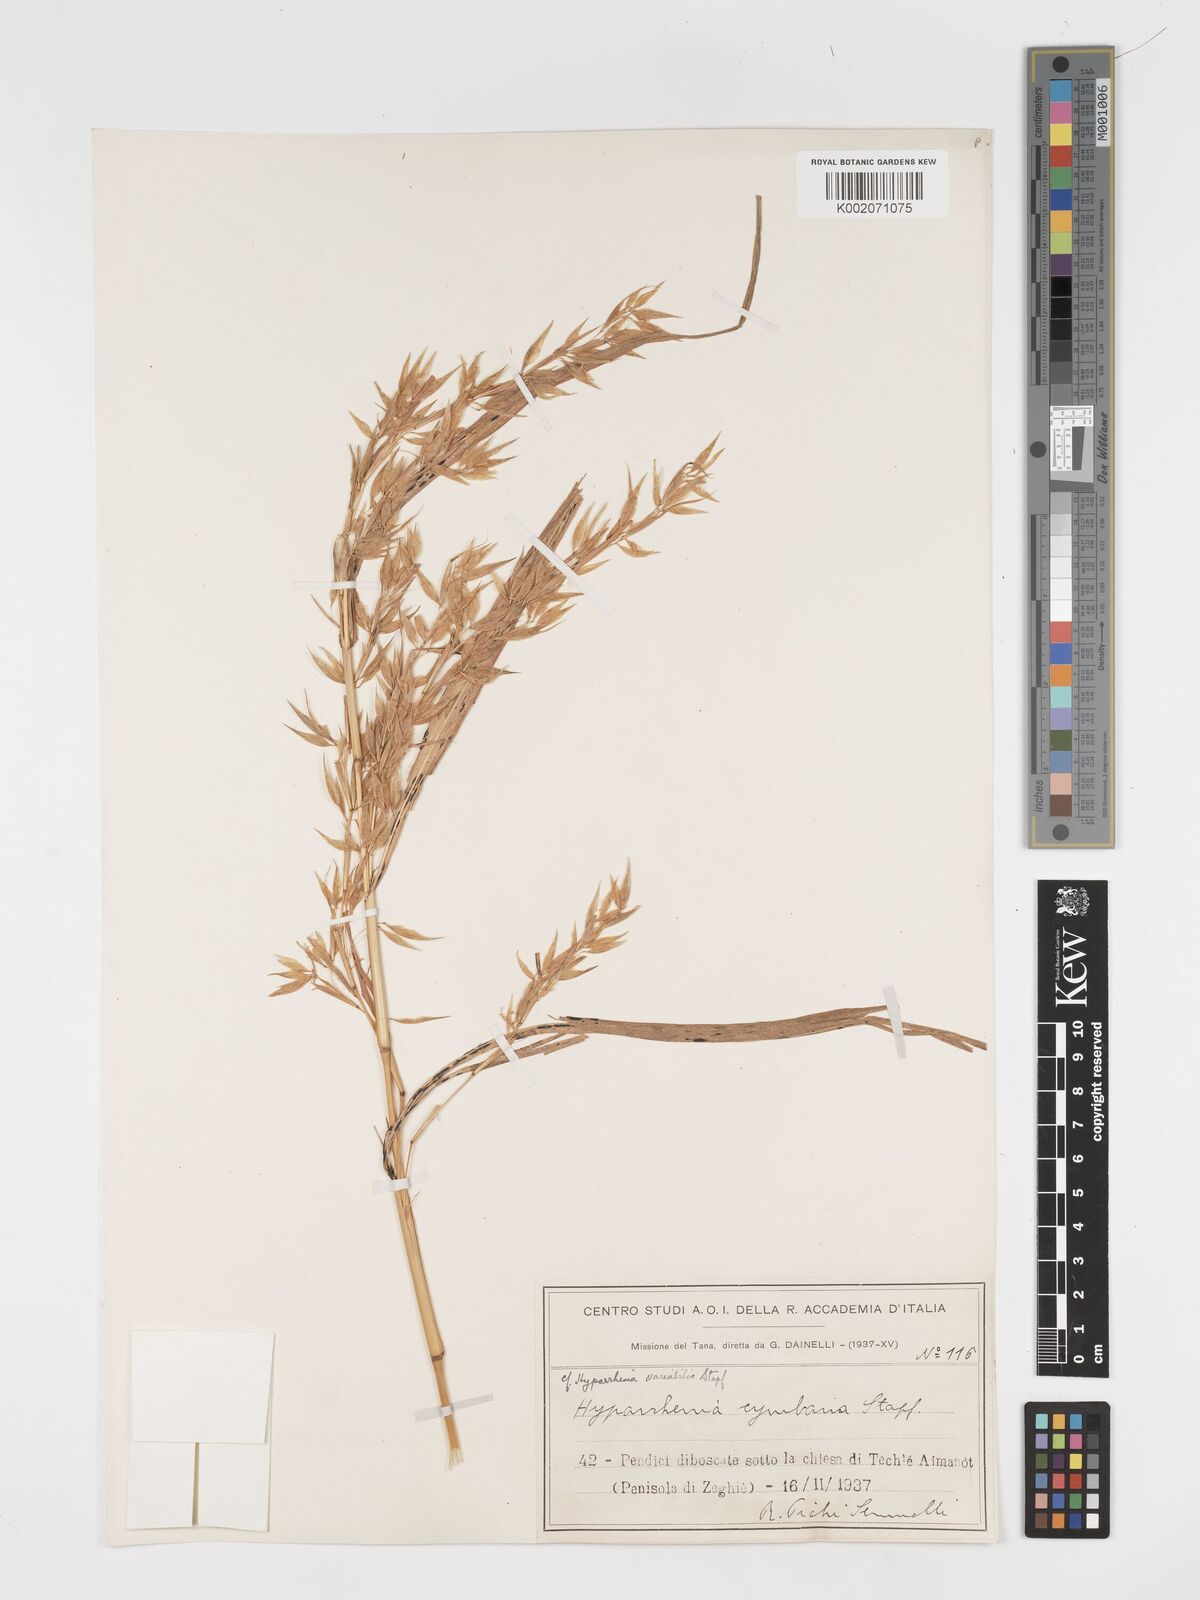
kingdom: Plantae
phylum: Tracheophyta
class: Liliopsida
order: Poales
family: Poaceae
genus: Hyparrhenia
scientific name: Hyparrhenia cymbaria
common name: Boat thatching grass
